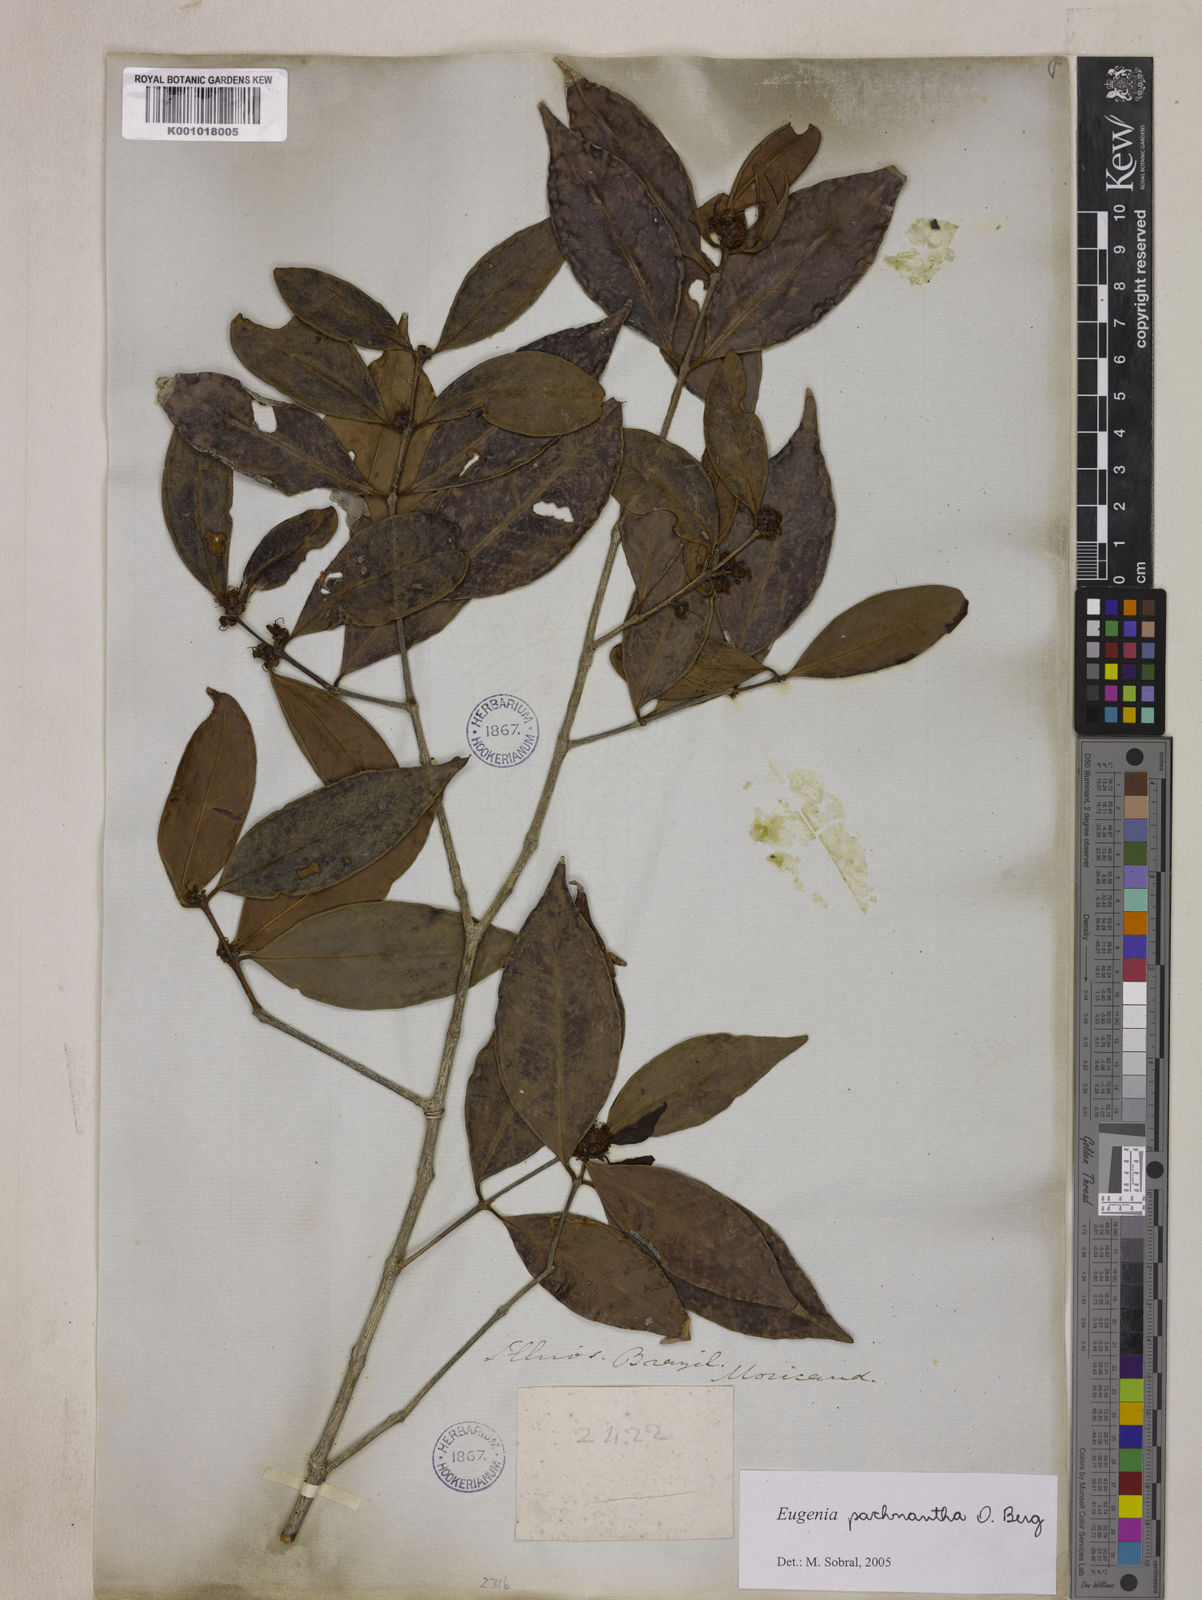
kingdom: Plantae
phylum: Tracheophyta
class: Magnoliopsida
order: Myrtales
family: Myrtaceae
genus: Eugenia
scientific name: Eugenia pachnantha
